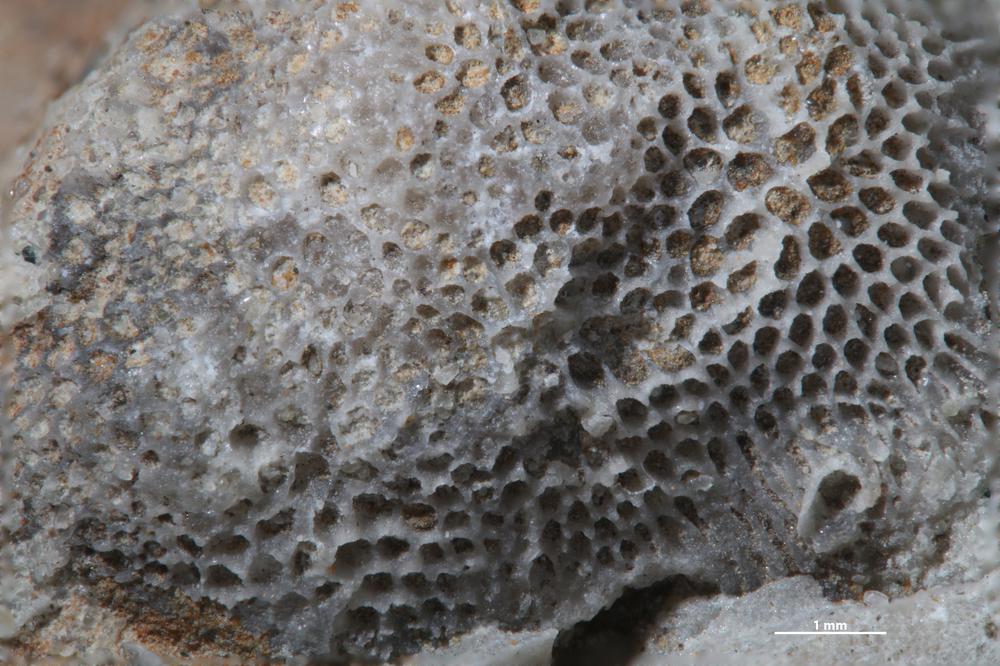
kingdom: Animalia
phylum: Bryozoa
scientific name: Bryozoa
